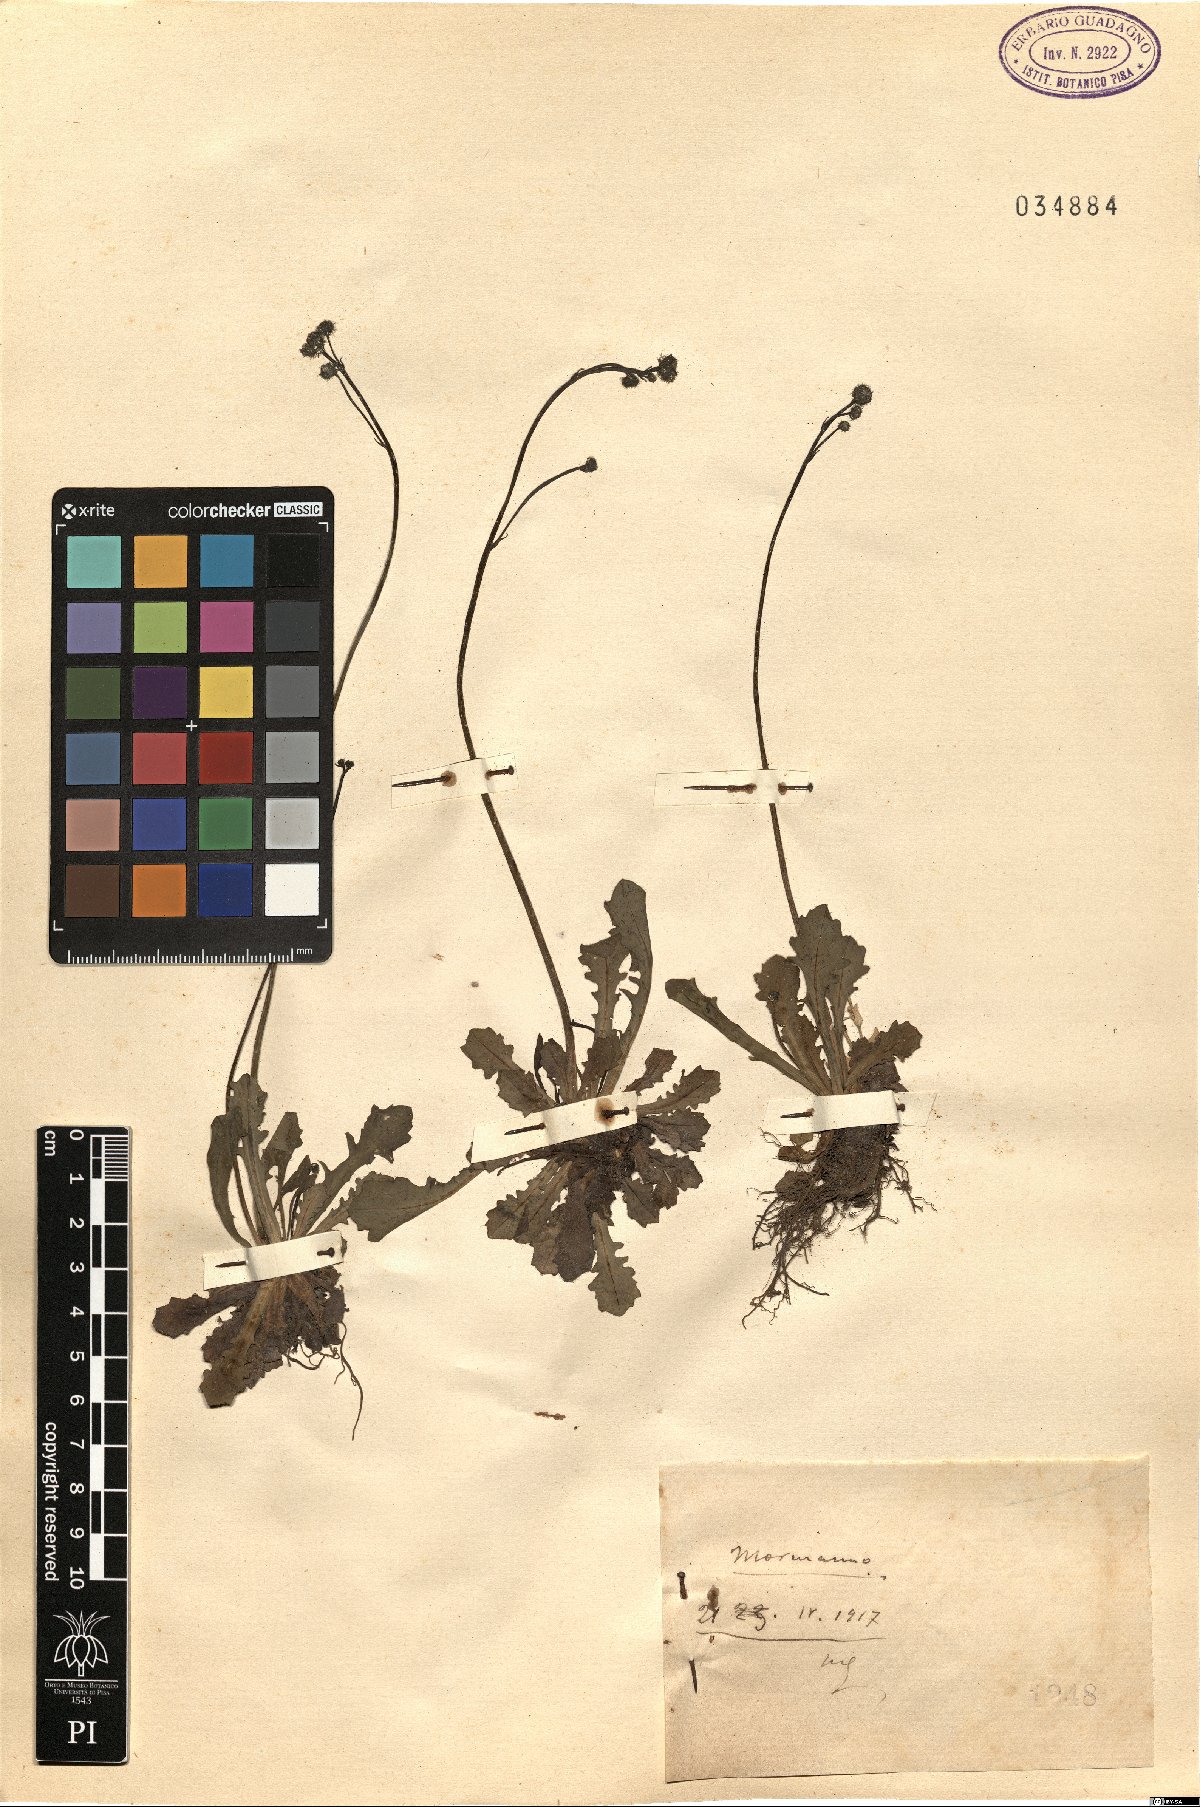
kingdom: Plantae
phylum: Tracheophyta
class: Magnoliopsida
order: Asterales
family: Asteraceae
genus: Hypochaeris
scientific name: Hypochaeris
